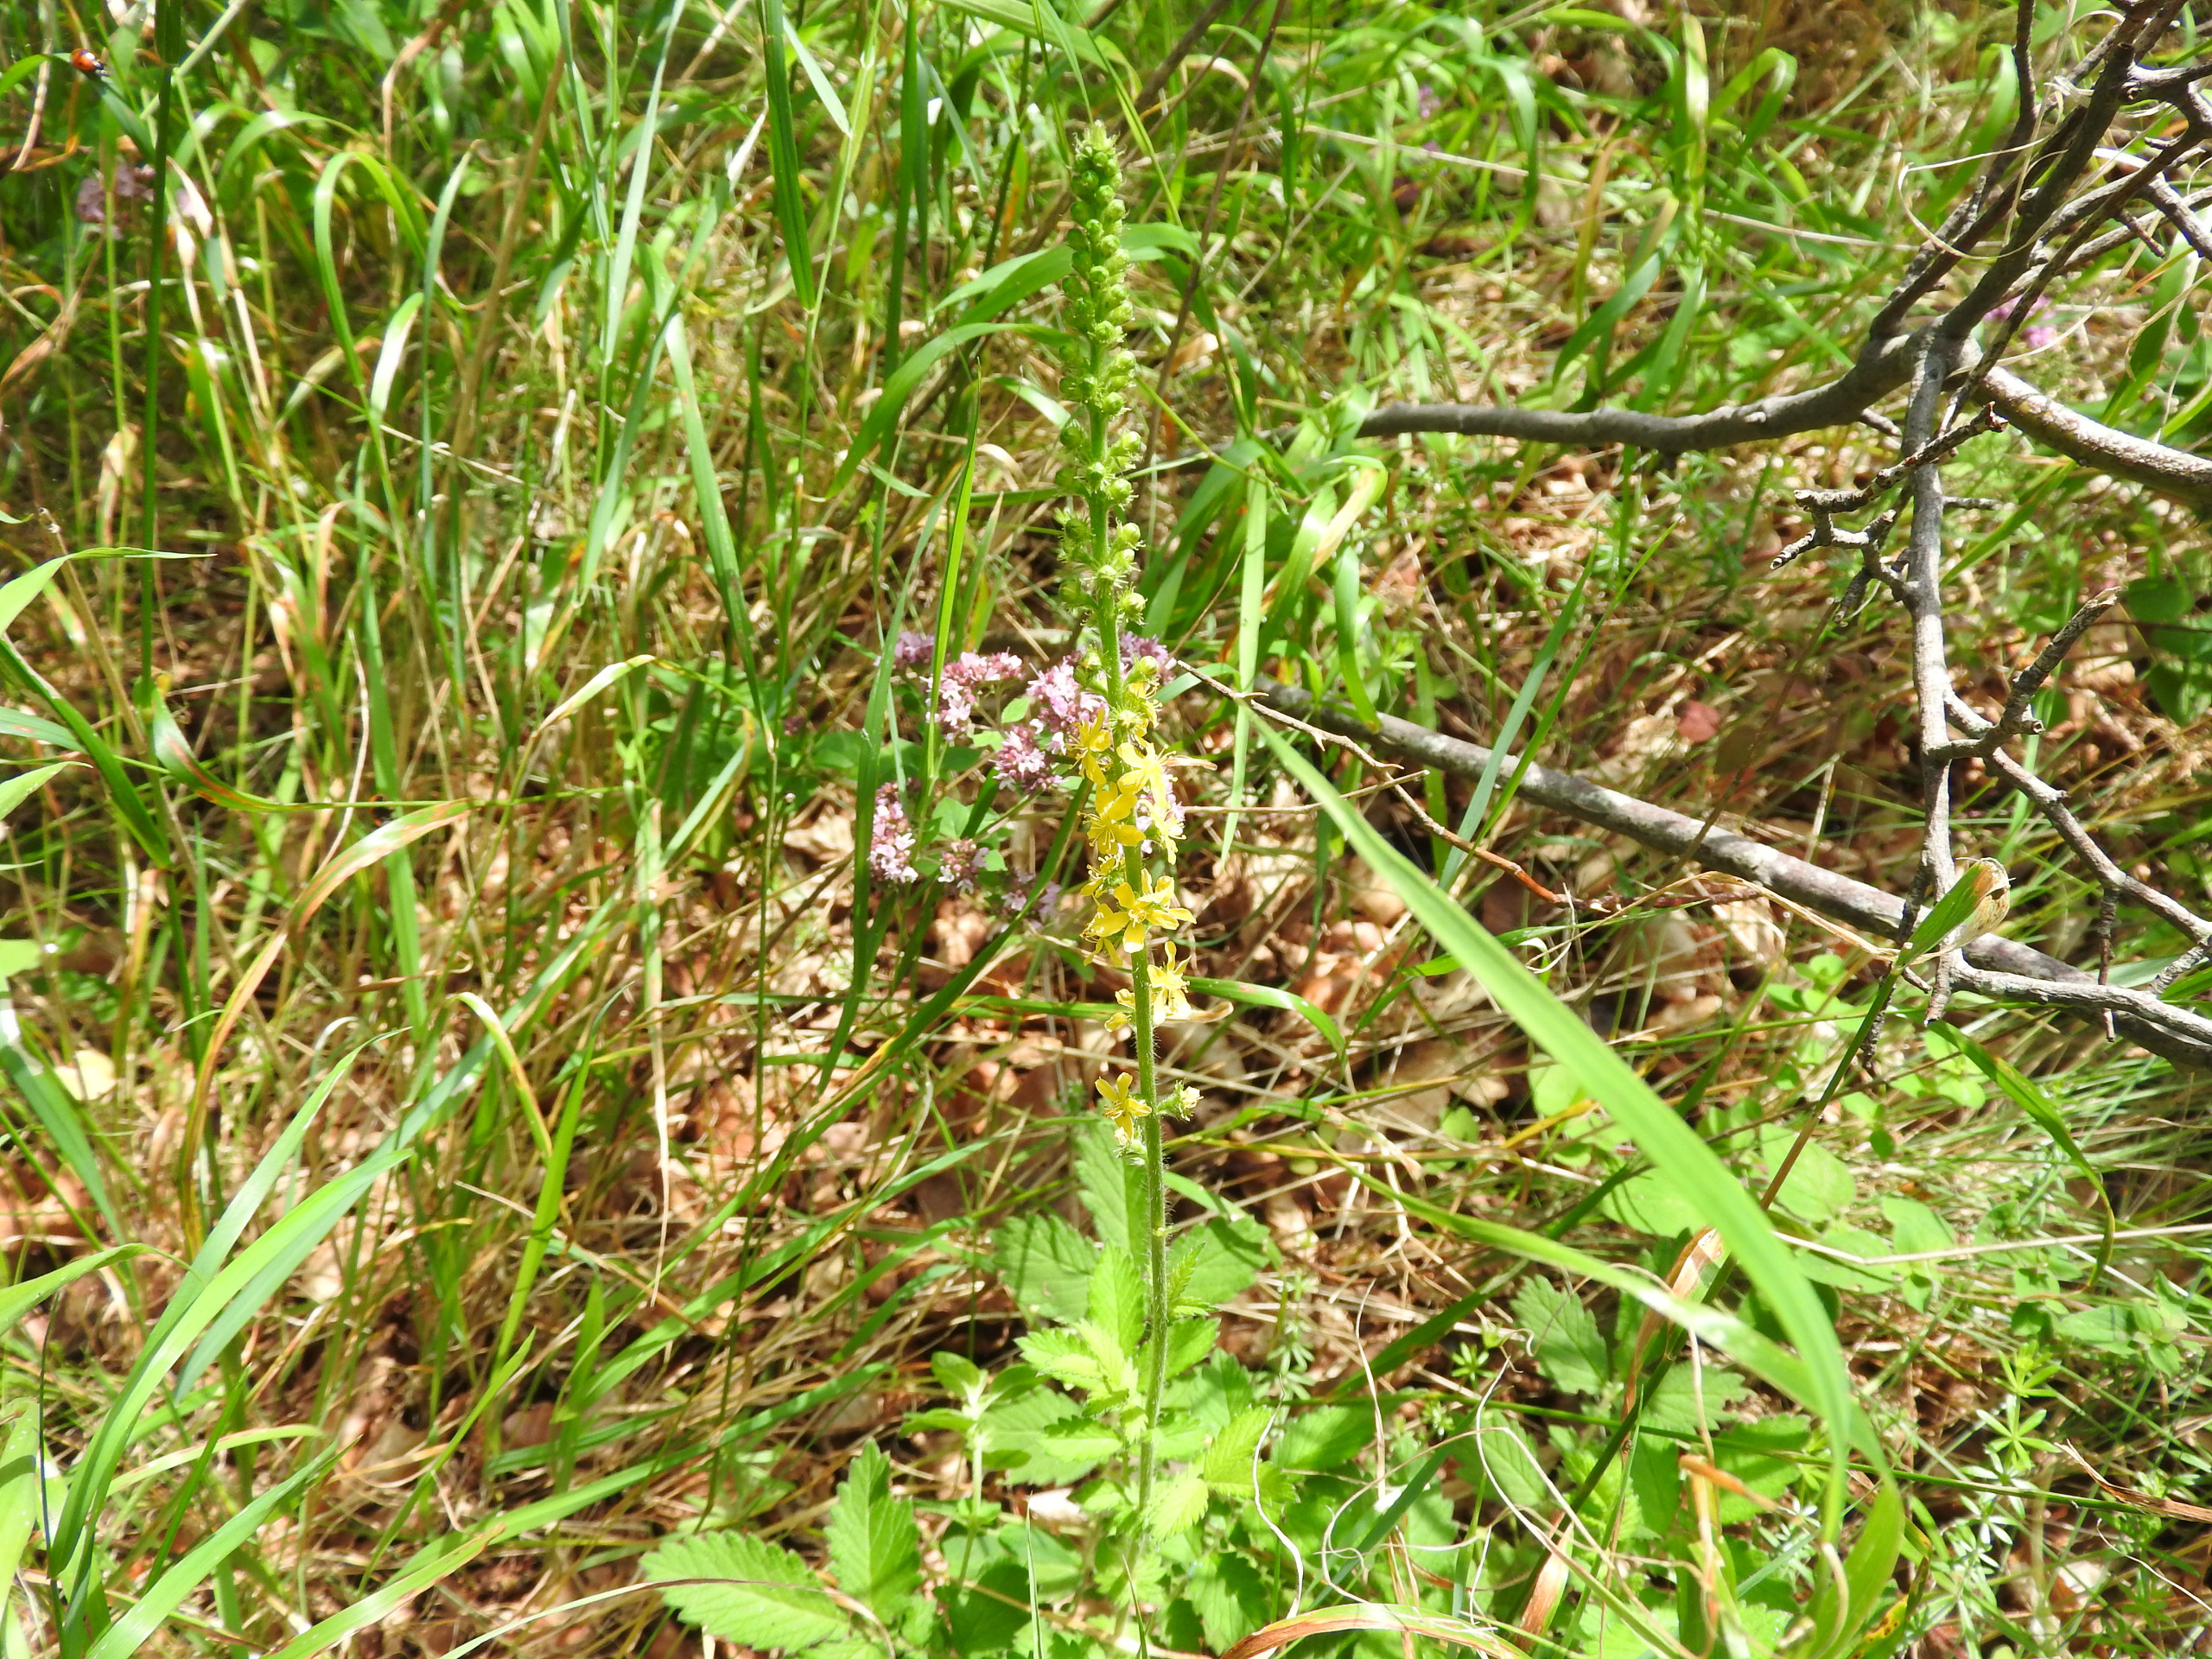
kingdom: Plantae
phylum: Tracheophyta
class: Magnoliopsida
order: Rosales
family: Rosaceae
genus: Agrimonia
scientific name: Agrimonia eupatoria
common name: Almindelig agermåne
